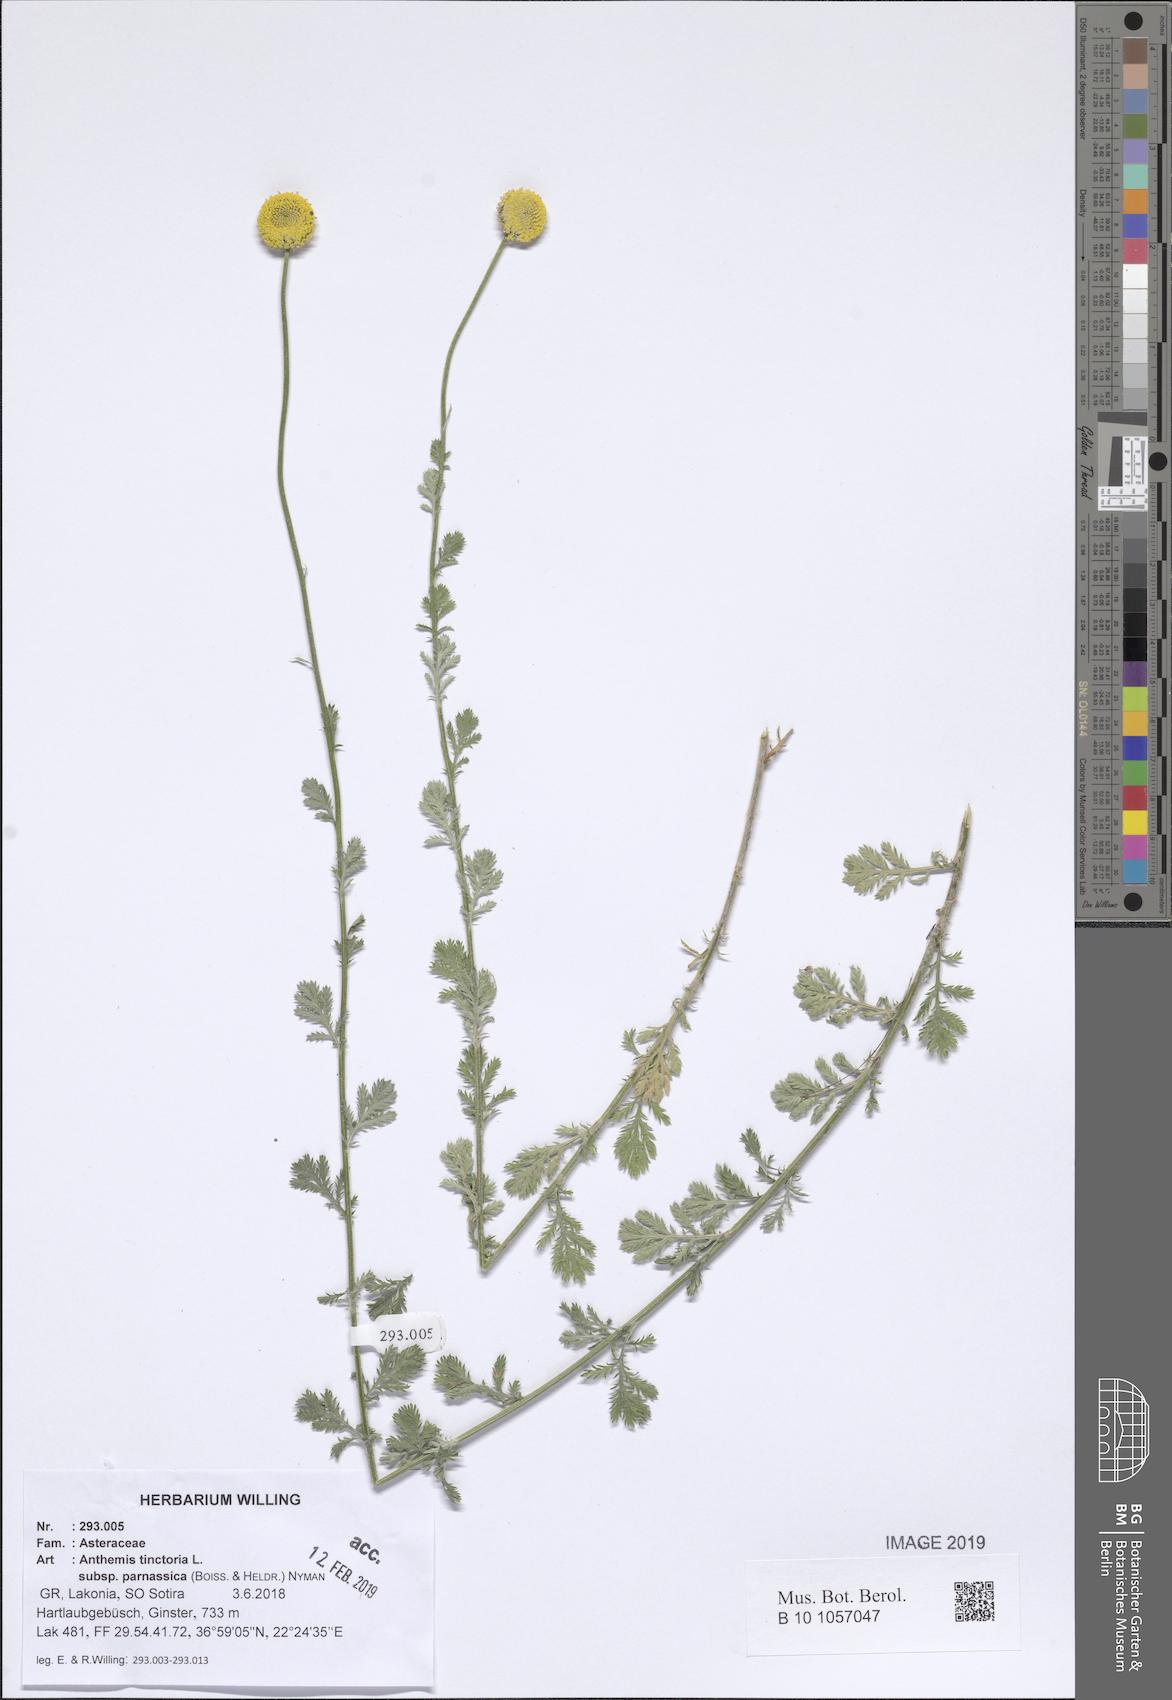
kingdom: Plantae
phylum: Tracheophyta
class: Magnoliopsida
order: Asterales
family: Asteraceae
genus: Cota
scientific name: Cota tinctoria
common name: Golden chamomile
